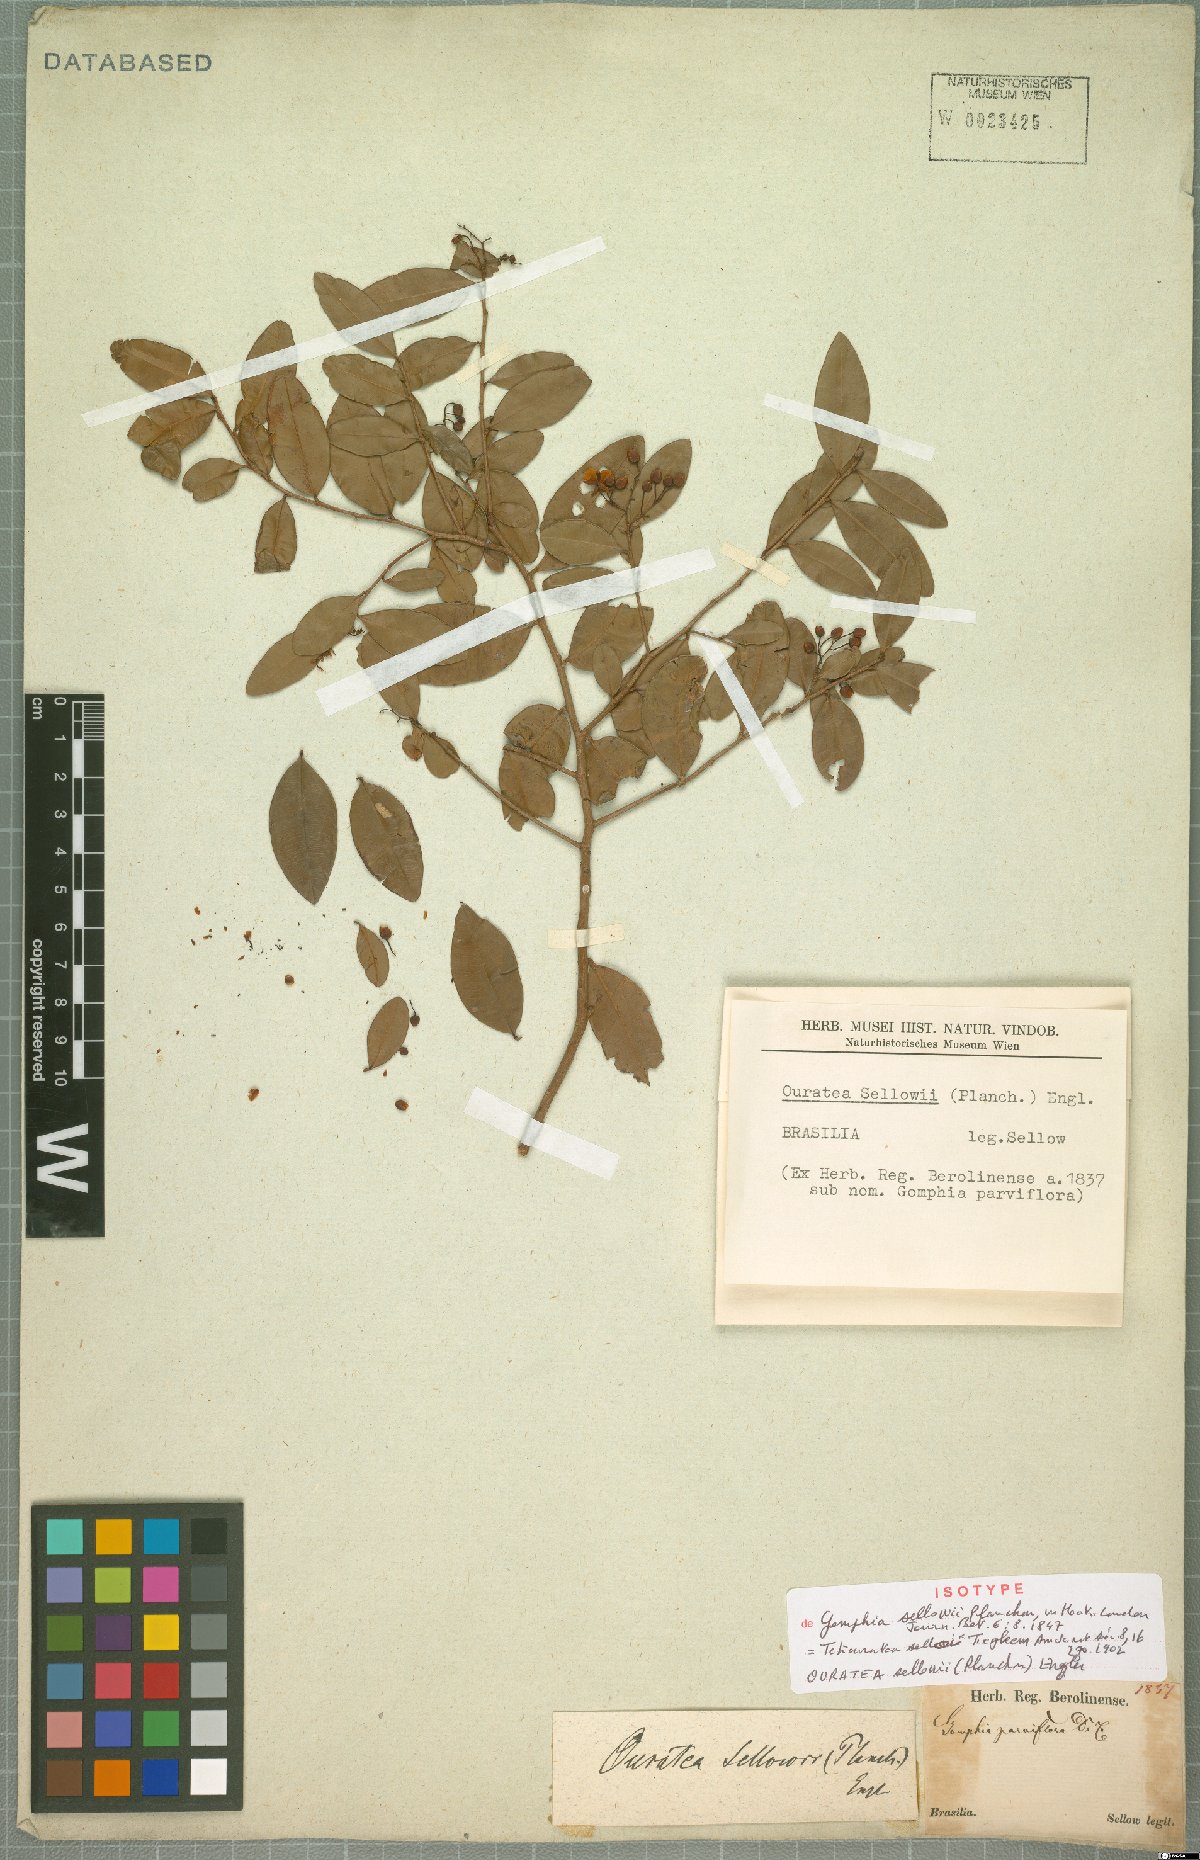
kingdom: Plantae
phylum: Tracheophyta
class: Magnoliopsida
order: Malpighiales
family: Ochnaceae
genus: Ouratea
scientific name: Ouratea sellowii
